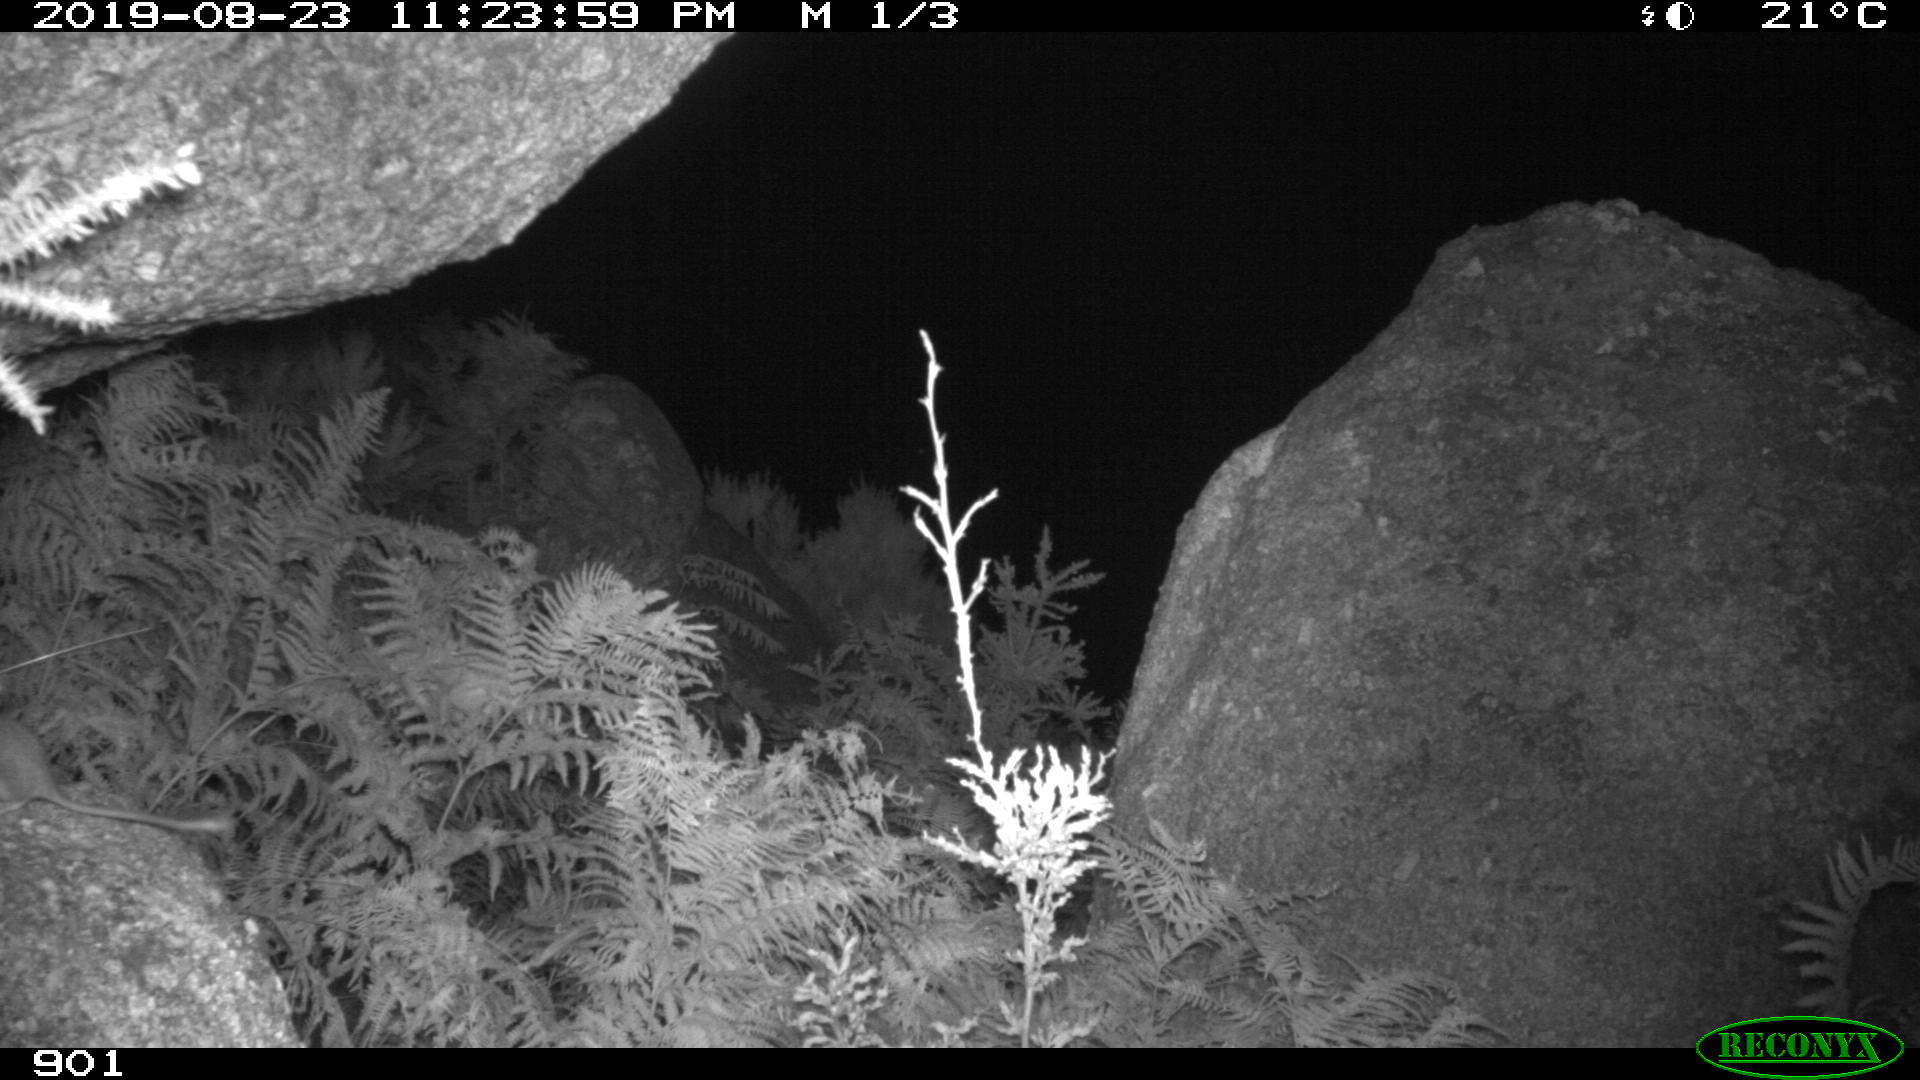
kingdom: Animalia
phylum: Chordata
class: Mammalia
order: Rodentia
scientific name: Rodentia
